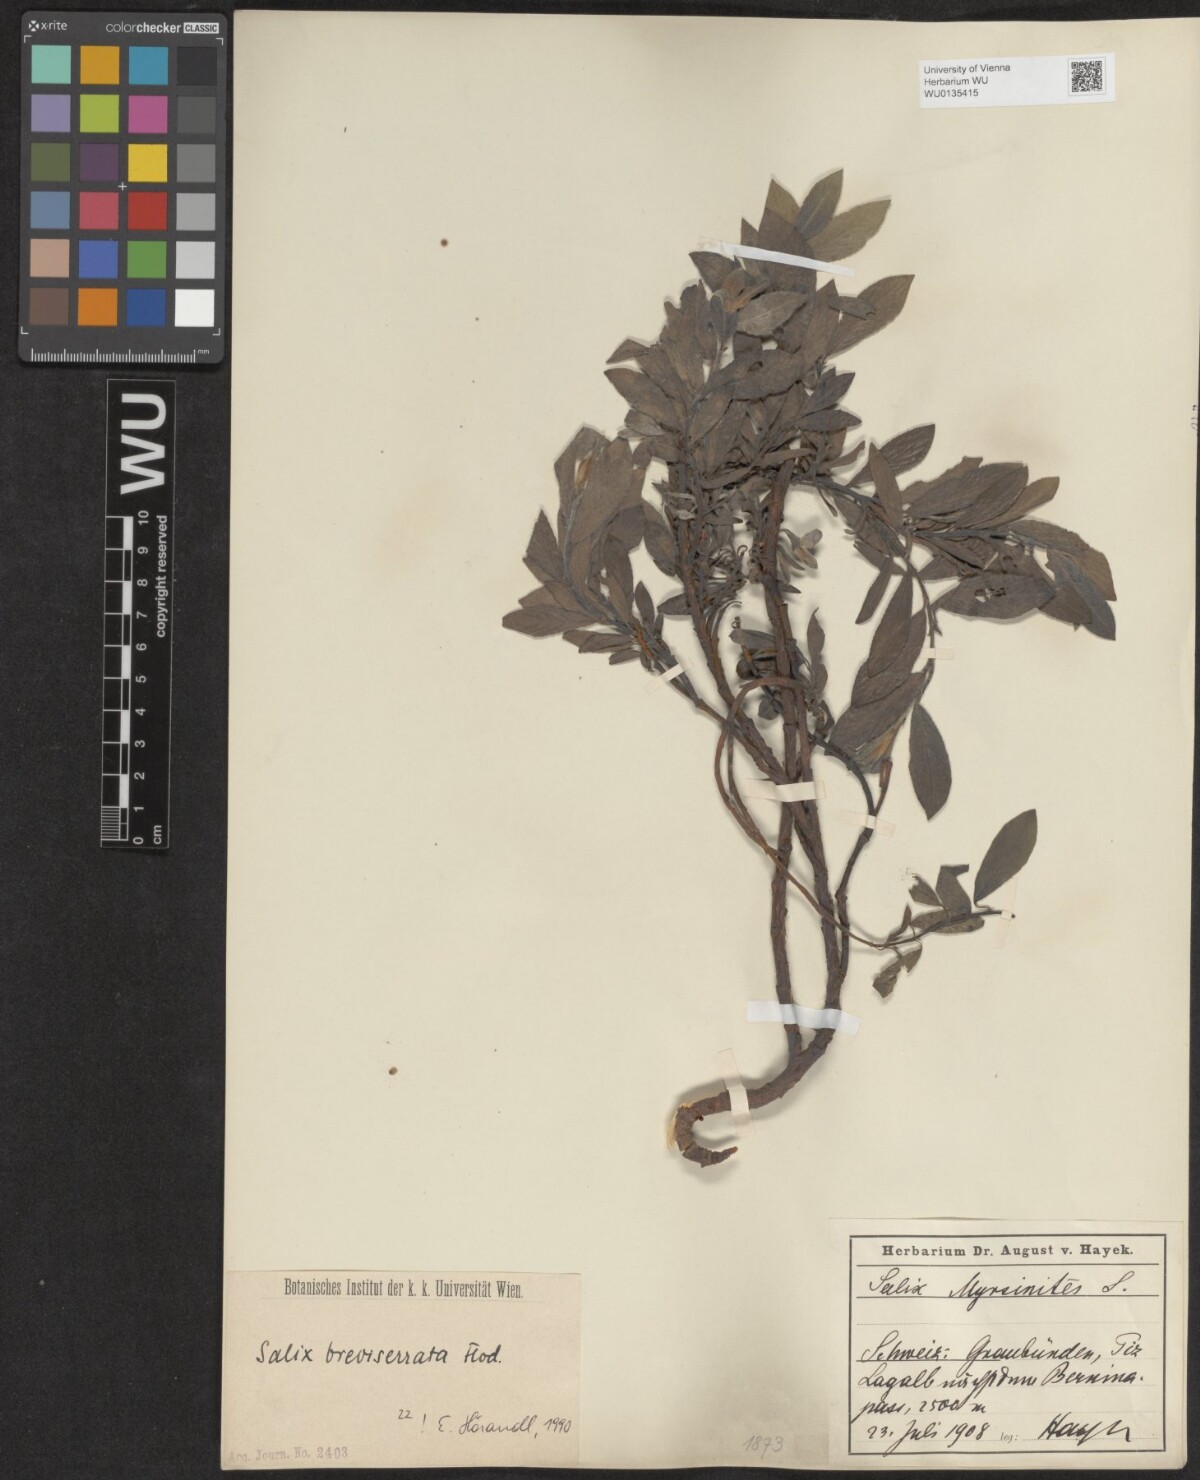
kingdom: Plantae
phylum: Tracheophyta
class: Magnoliopsida
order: Malpighiales
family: Salicaceae
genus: Salix
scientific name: Salix breviserrata
